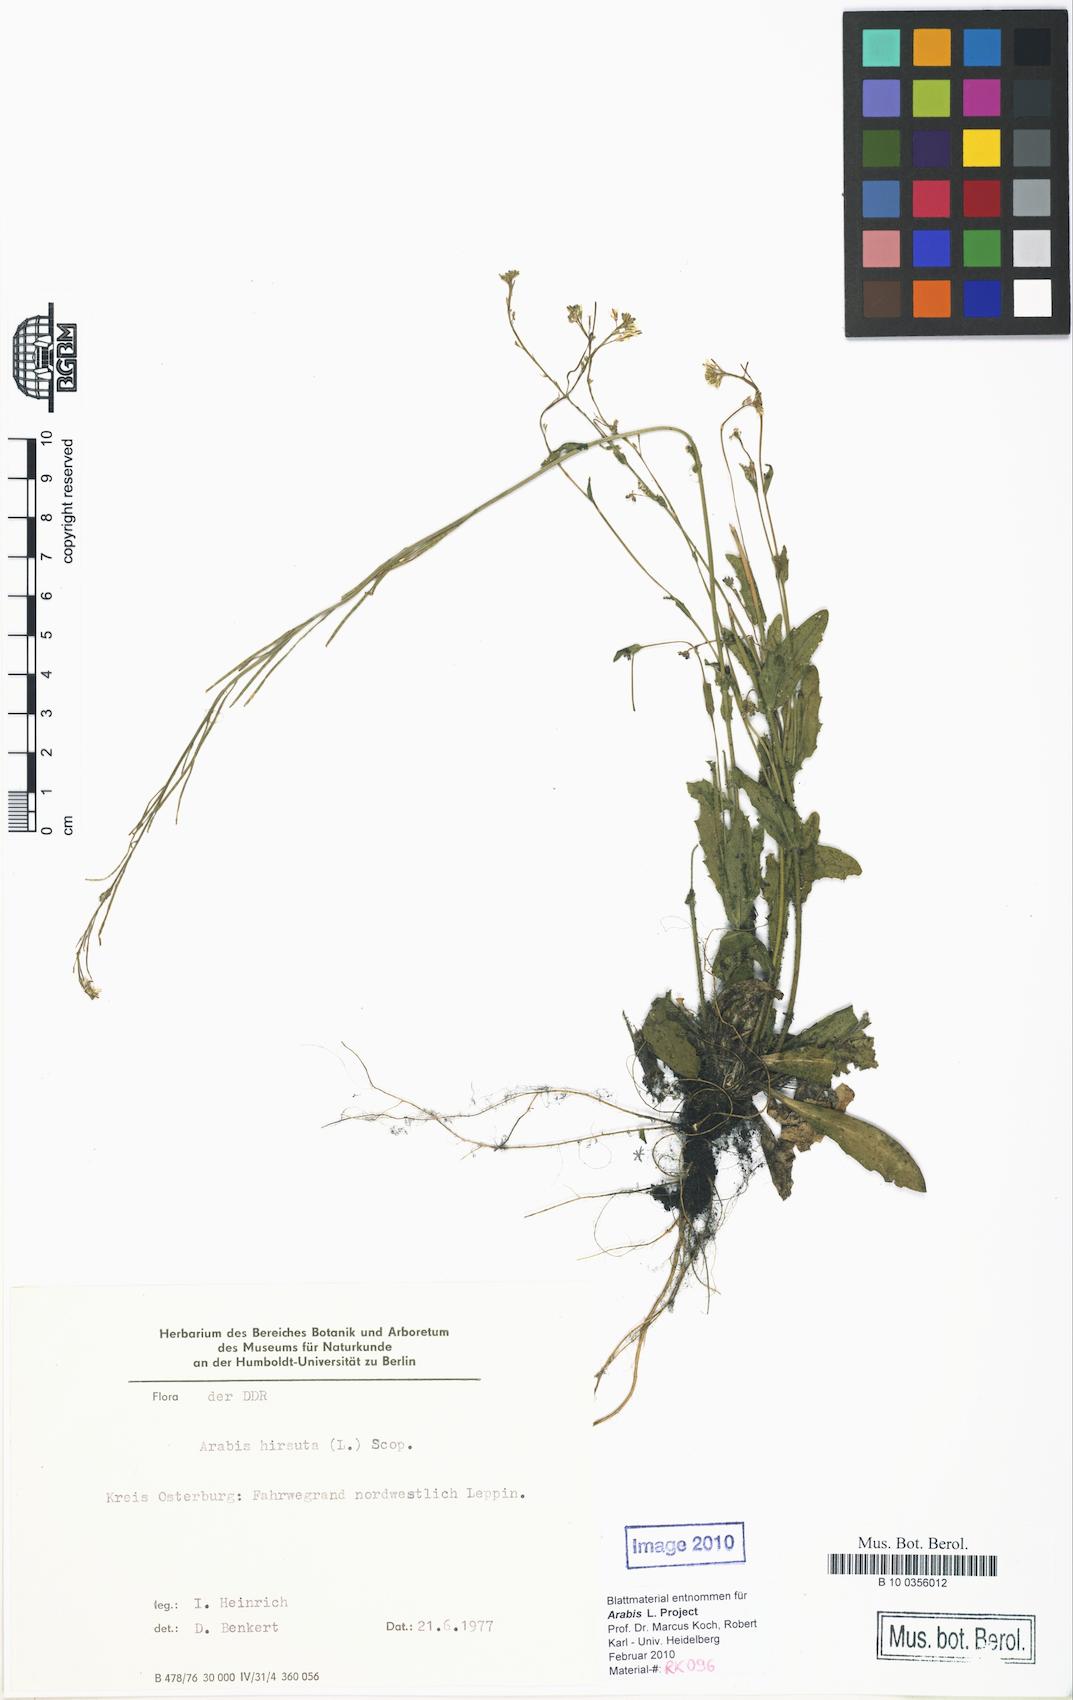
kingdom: Plantae
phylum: Tracheophyta
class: Magnoliopsida
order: Brassicales
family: Brassicaceae
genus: Arabis
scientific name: Arabis hirsuta
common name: Hairy rock-cress
